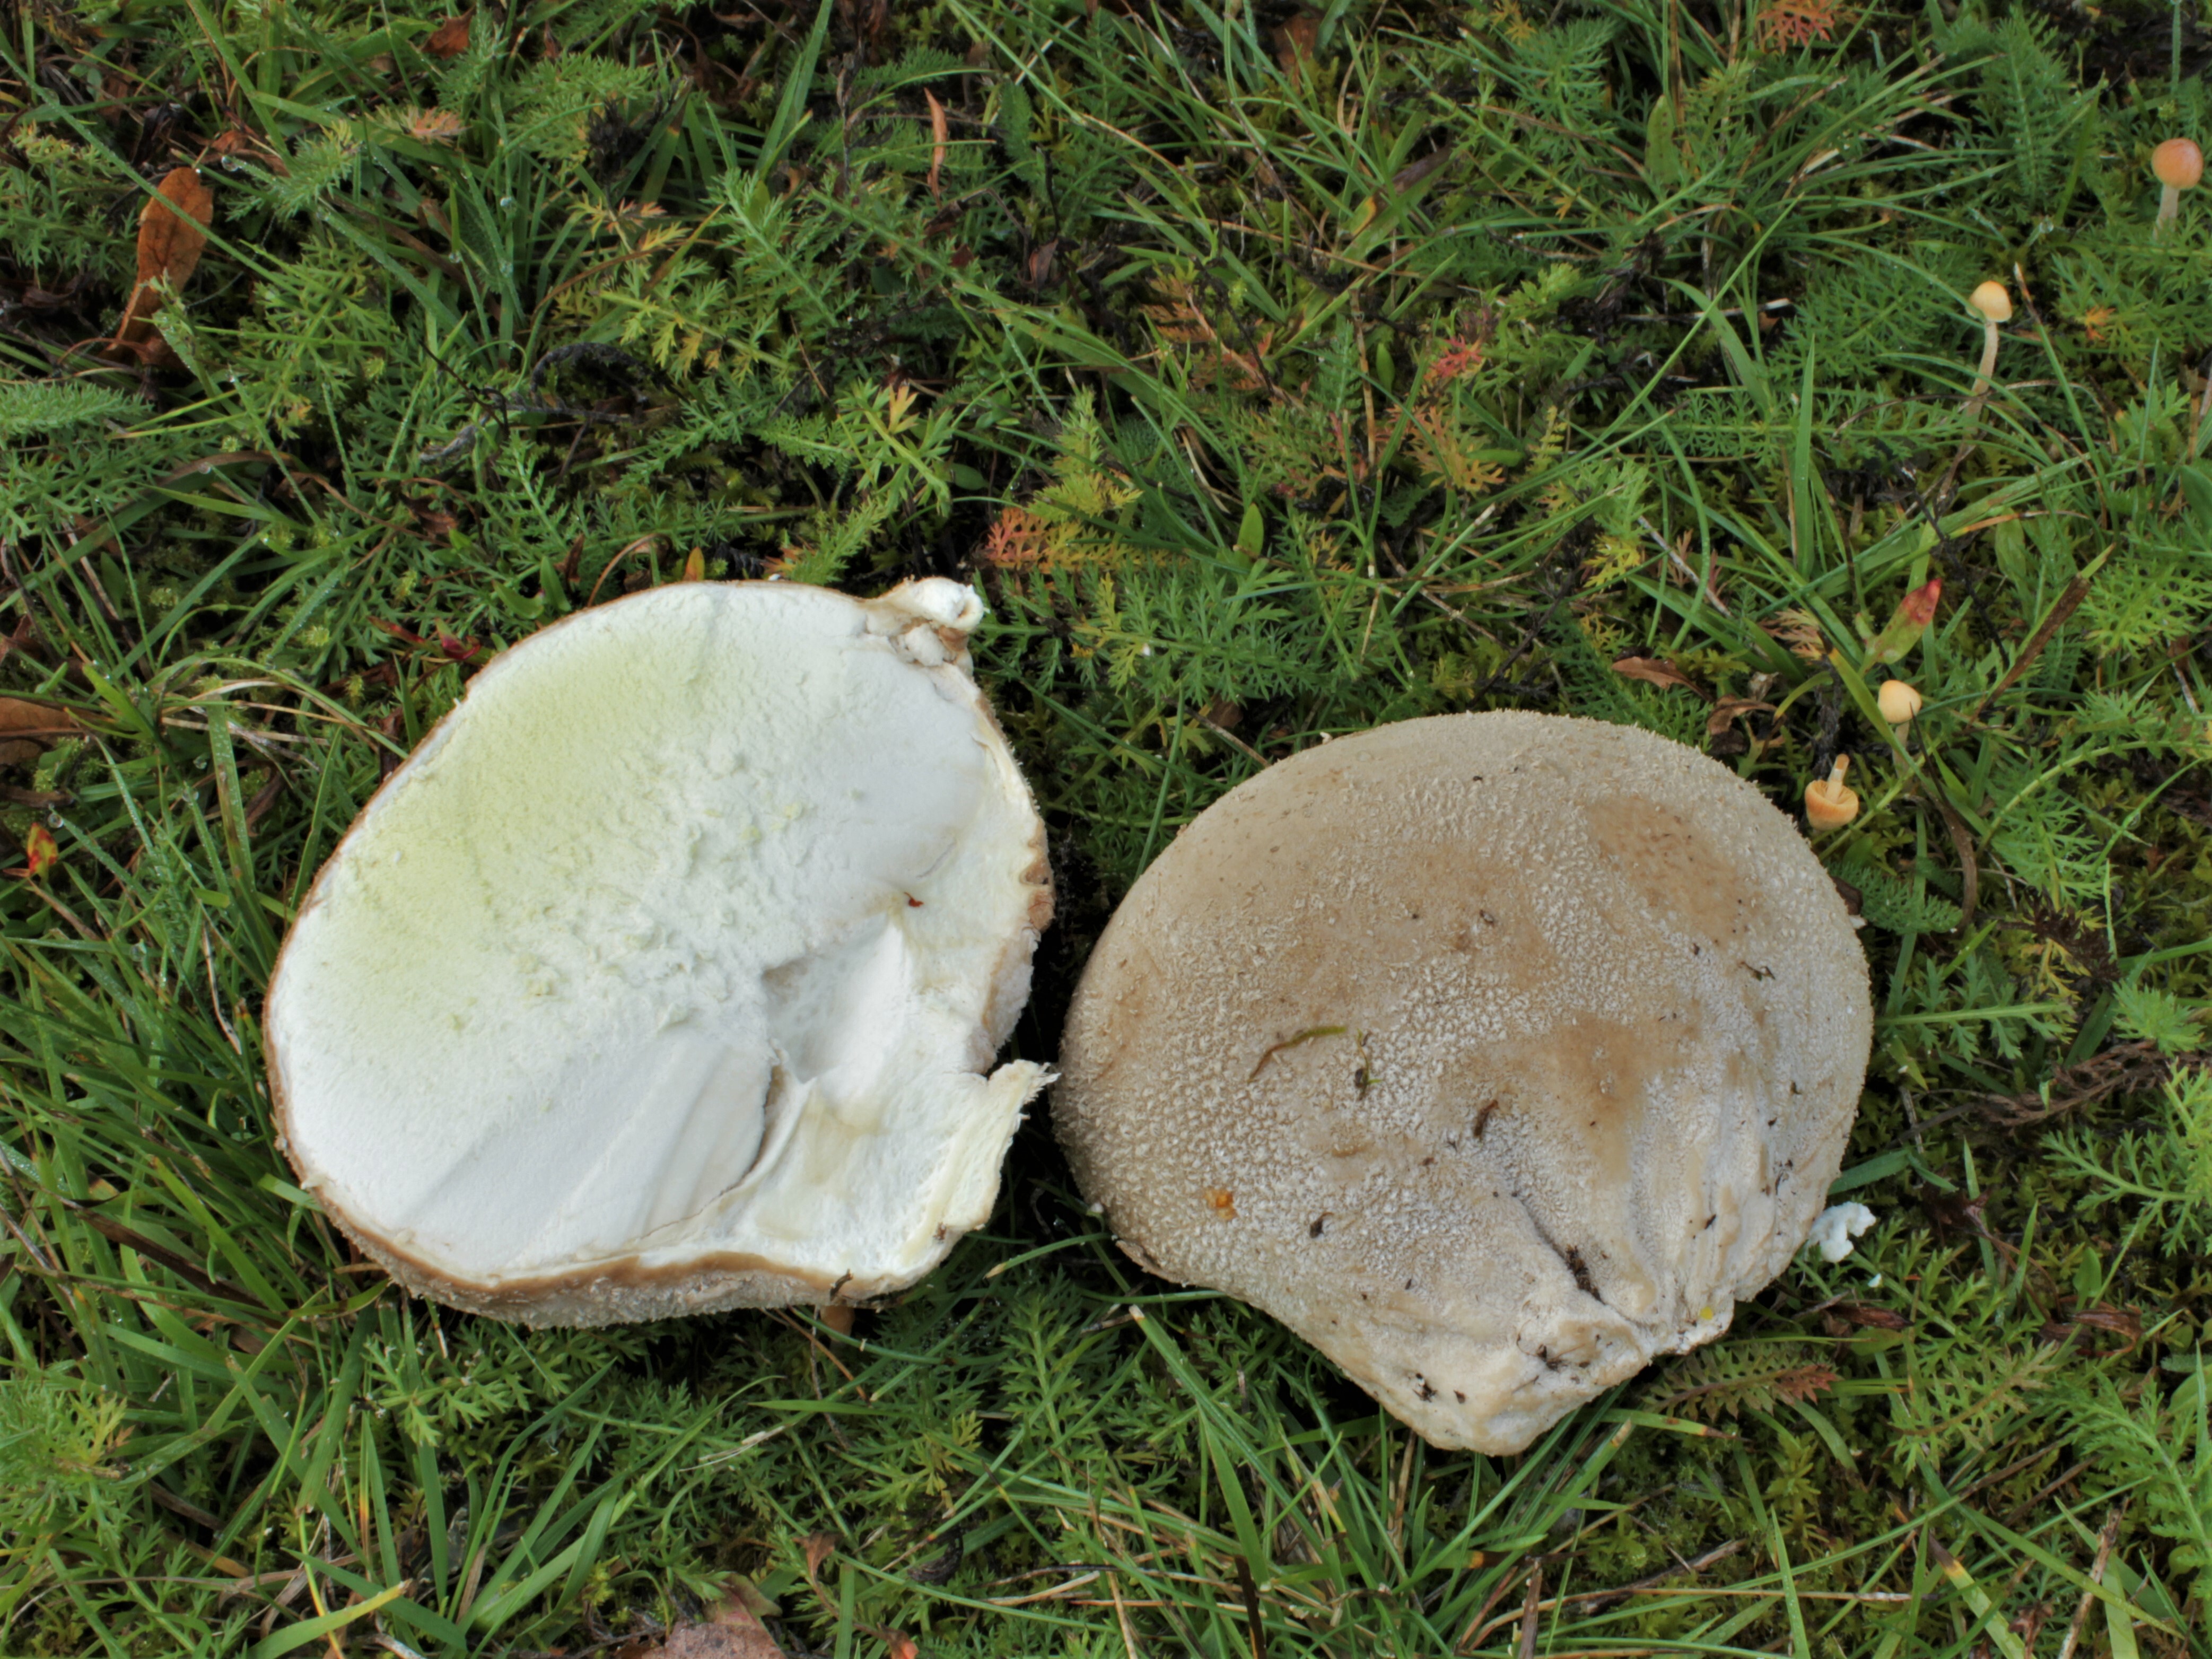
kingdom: Fungi
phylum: Basidiomycota
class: Agaricomycetes
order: Agaricales
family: Lycoperdaceae
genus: Bovistella
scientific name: Bovistella utriformis
